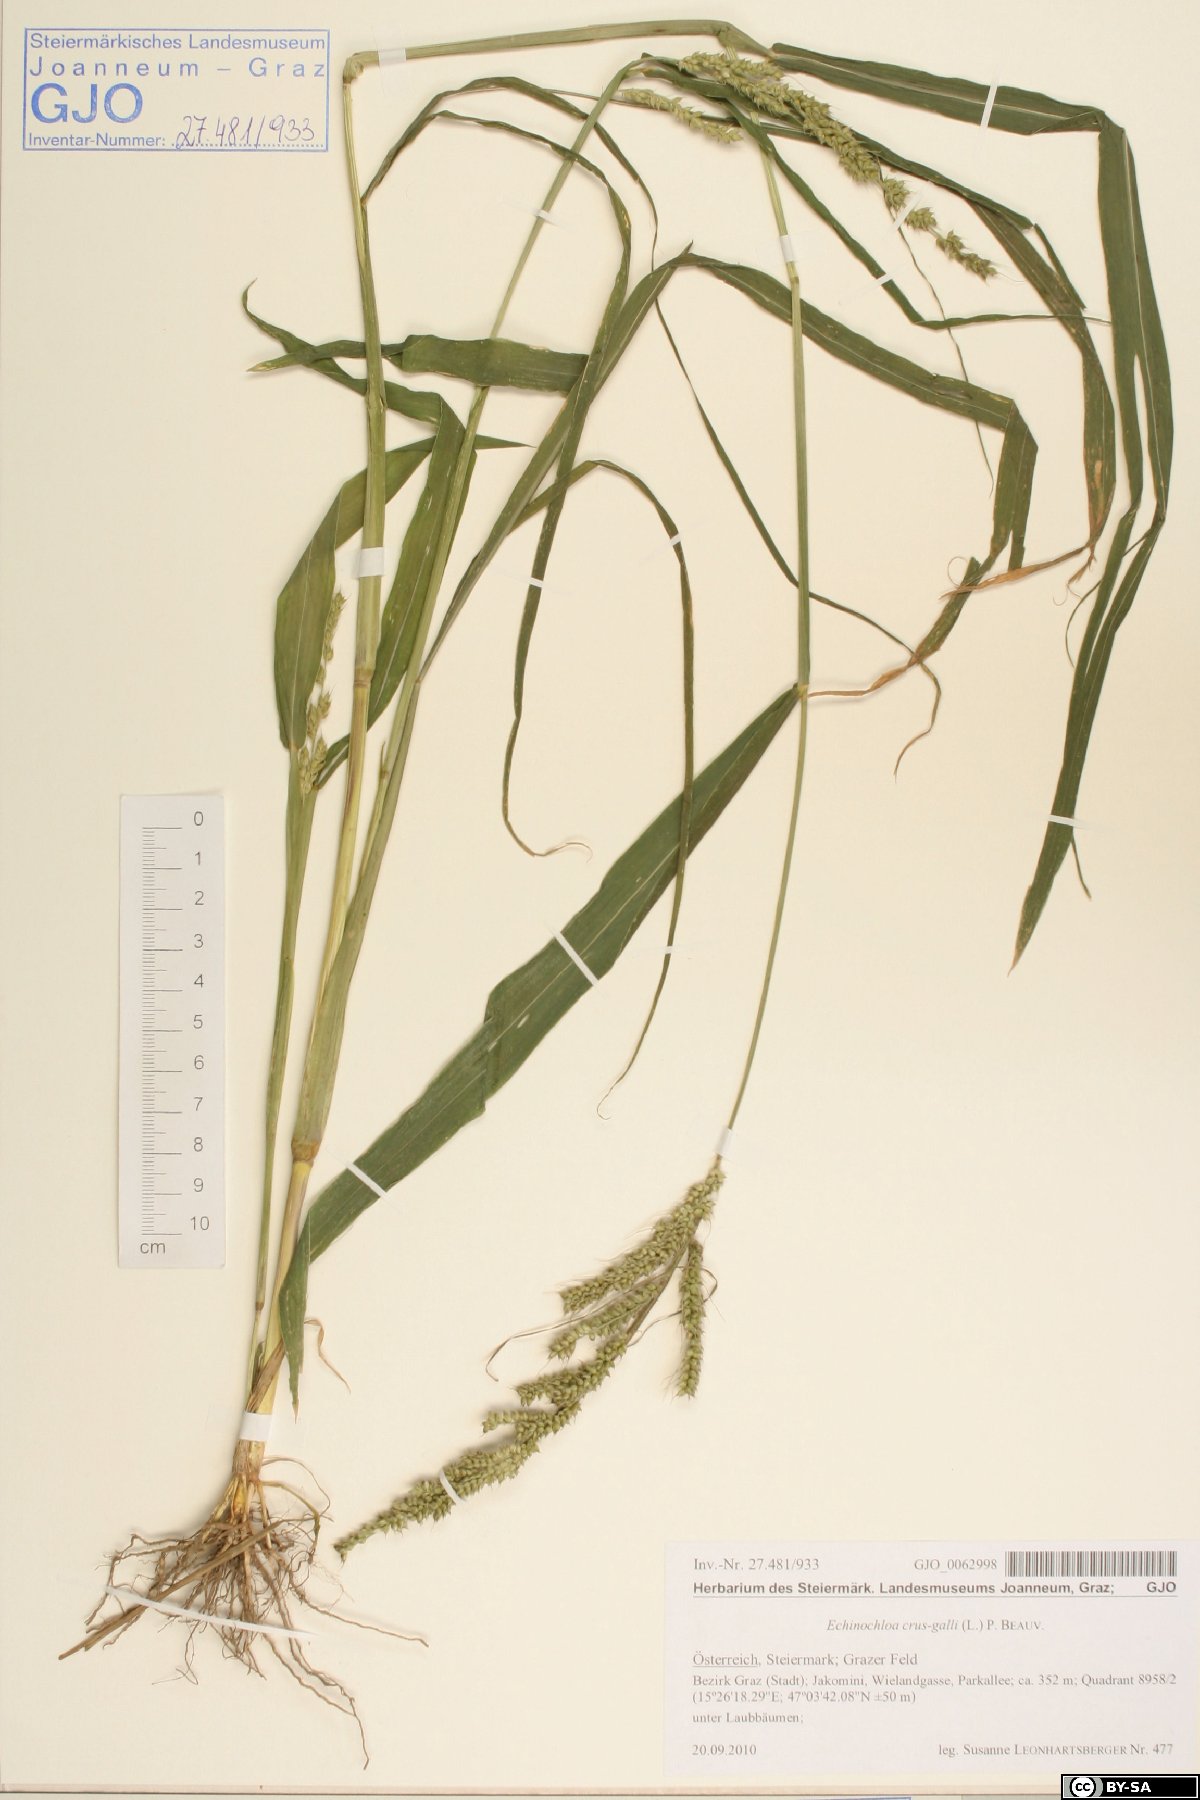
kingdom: Plantae
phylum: Tracheophyta
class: Liliopsida
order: Poales
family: Poaceae
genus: Echinochloa
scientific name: Echinochloa crus-galli
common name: Cockspur
